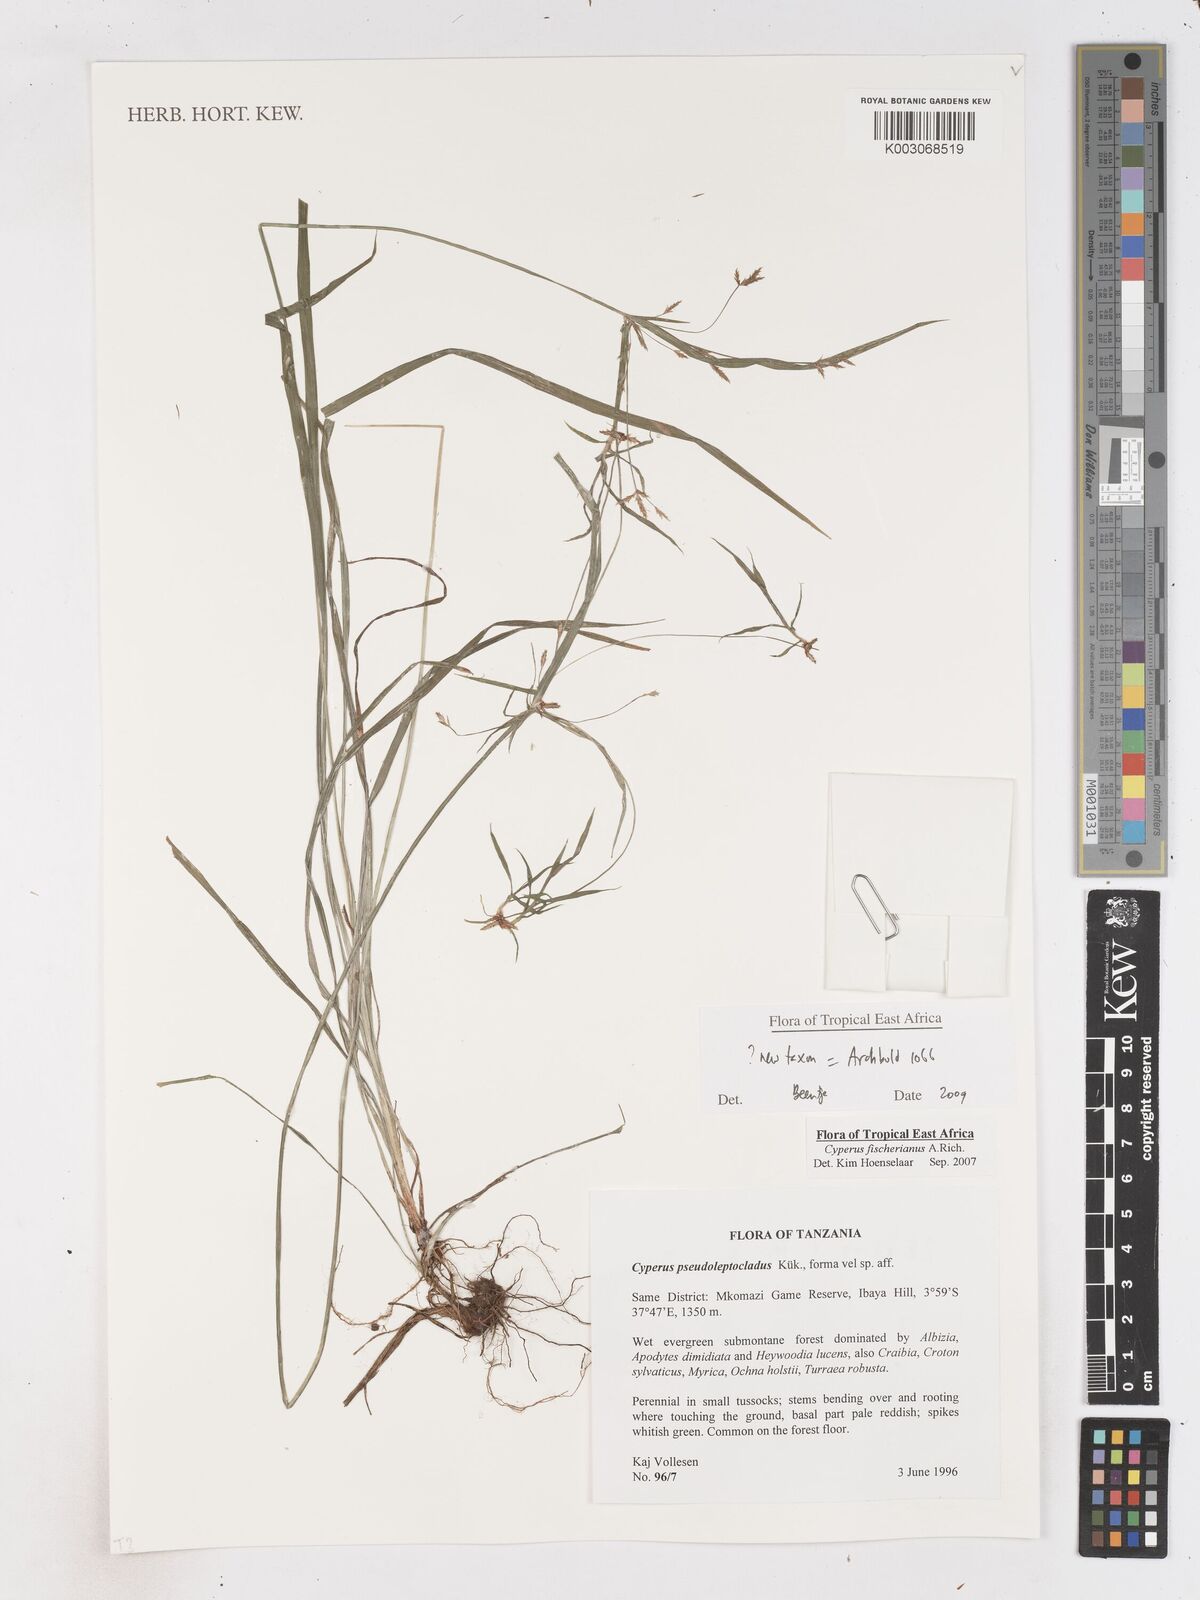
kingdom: Plantae
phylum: Tracheophyta
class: Liliopsida
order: Poales
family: Cyperaceae
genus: Cyperus
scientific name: Cyperus glaucophyllus
